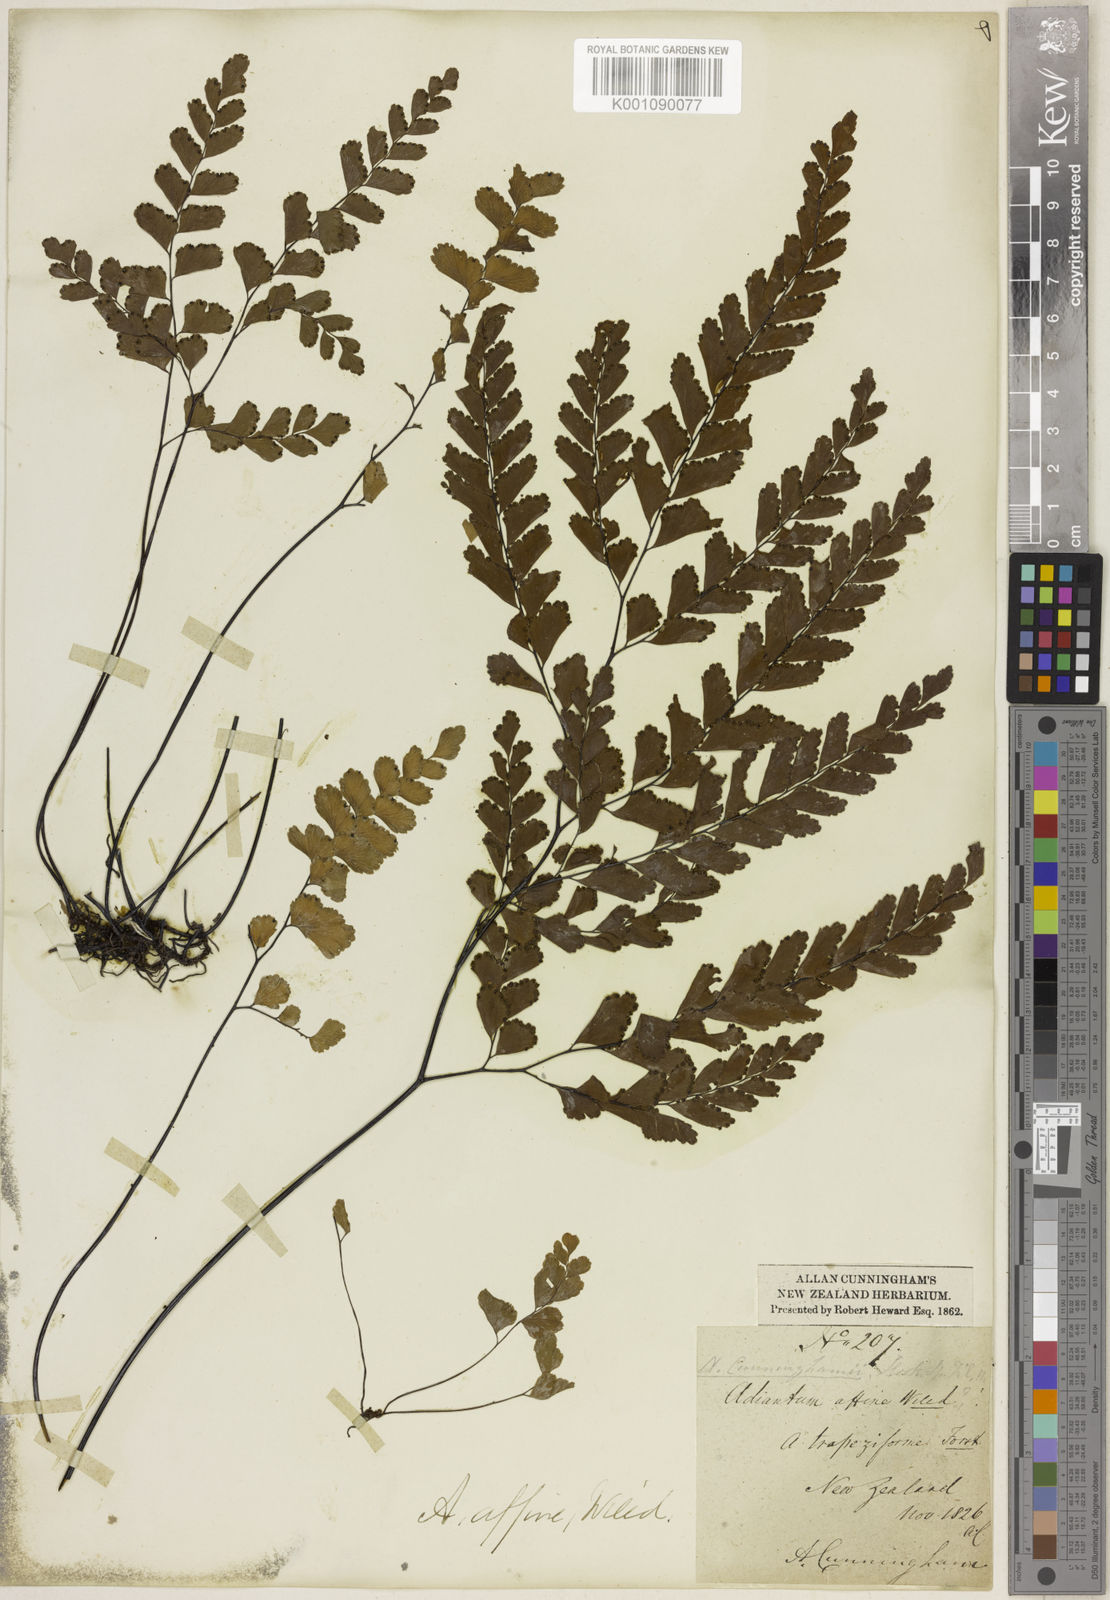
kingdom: Plantae
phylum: Tracheophyta
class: Polypodiopsida
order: Polypodiales
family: Pteridaceae
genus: Adiantum
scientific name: Adiantum cunninghamii
